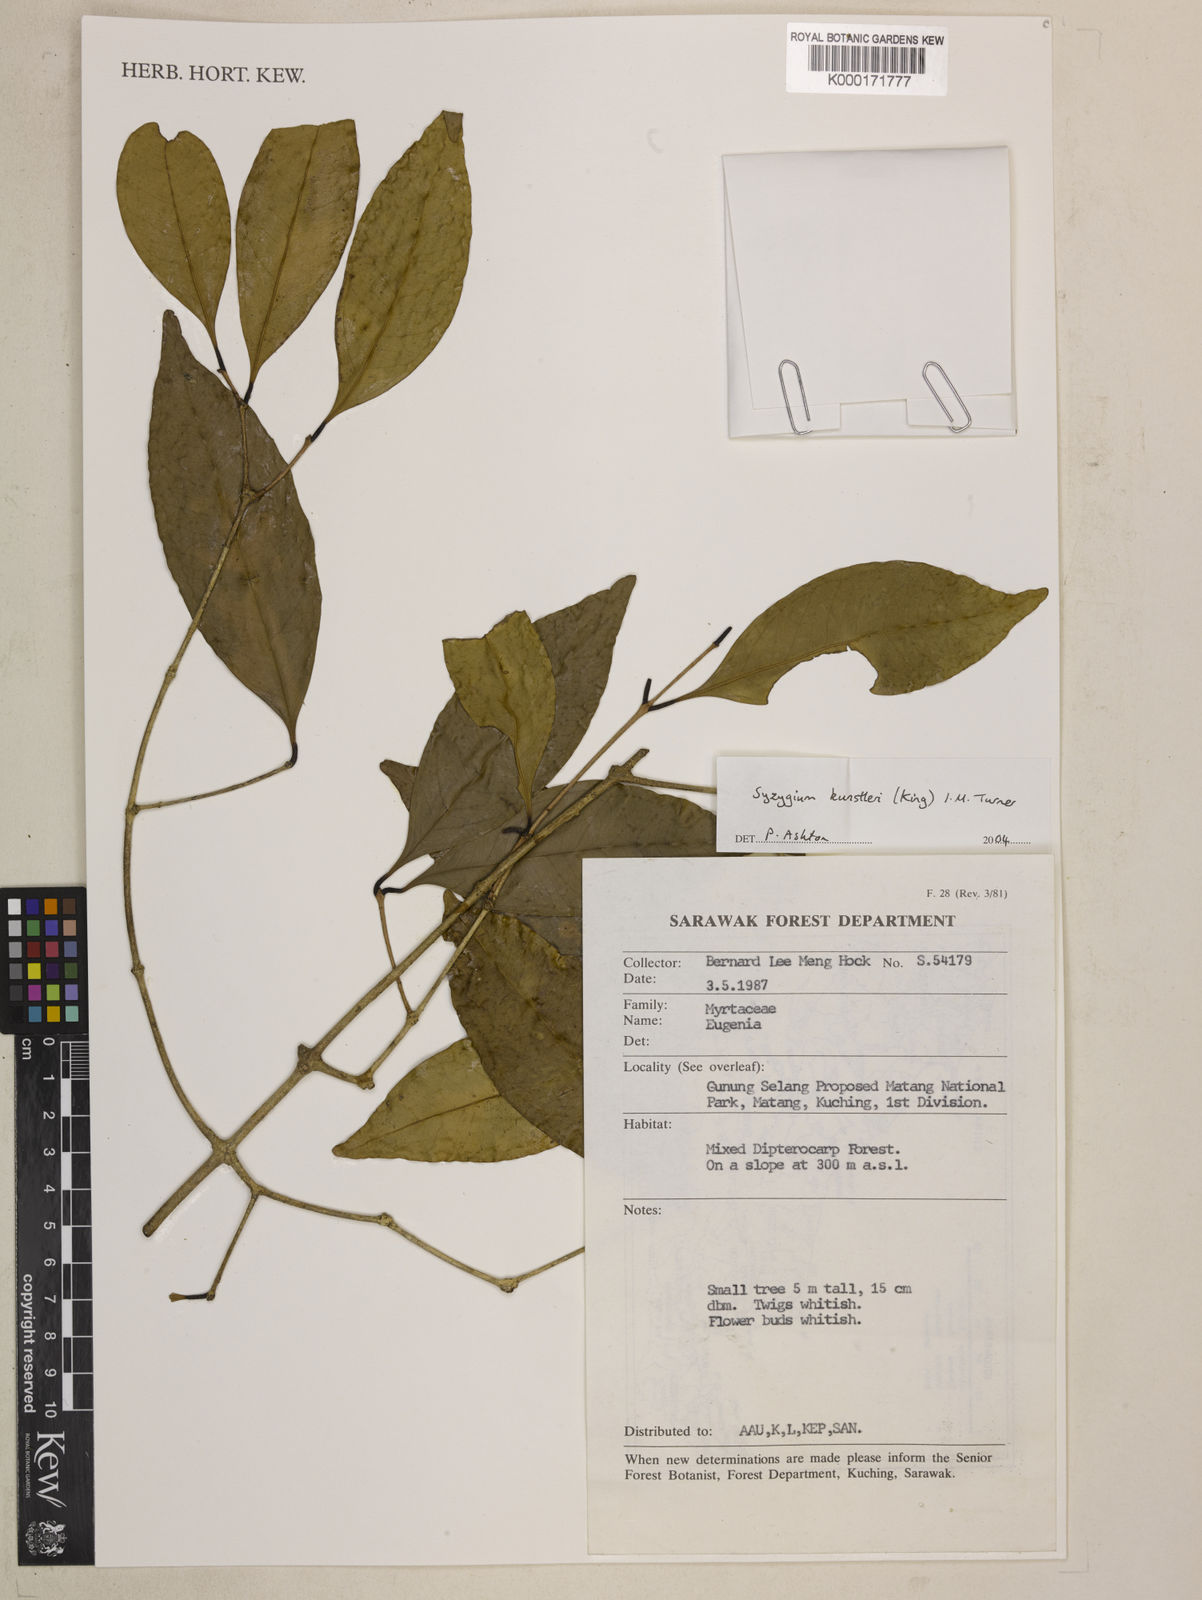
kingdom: Plantae
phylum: Tracheophyta
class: Magnoliopsida
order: Myrtales
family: Myrtaceae
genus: Syzygium
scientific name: Syzygium
